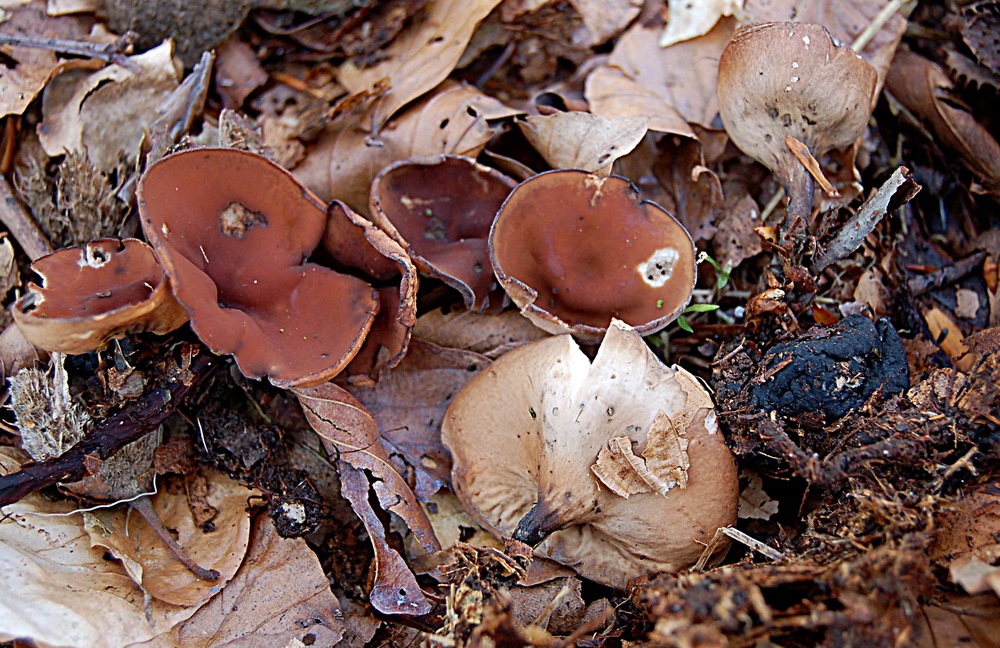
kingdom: Fungi
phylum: Ascomycota
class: Leotiomycetes
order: Helotiales
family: Sclerotiniaceae
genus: Dumontinia
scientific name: Dumontinia tuberosa
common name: anemone-knoldskive
